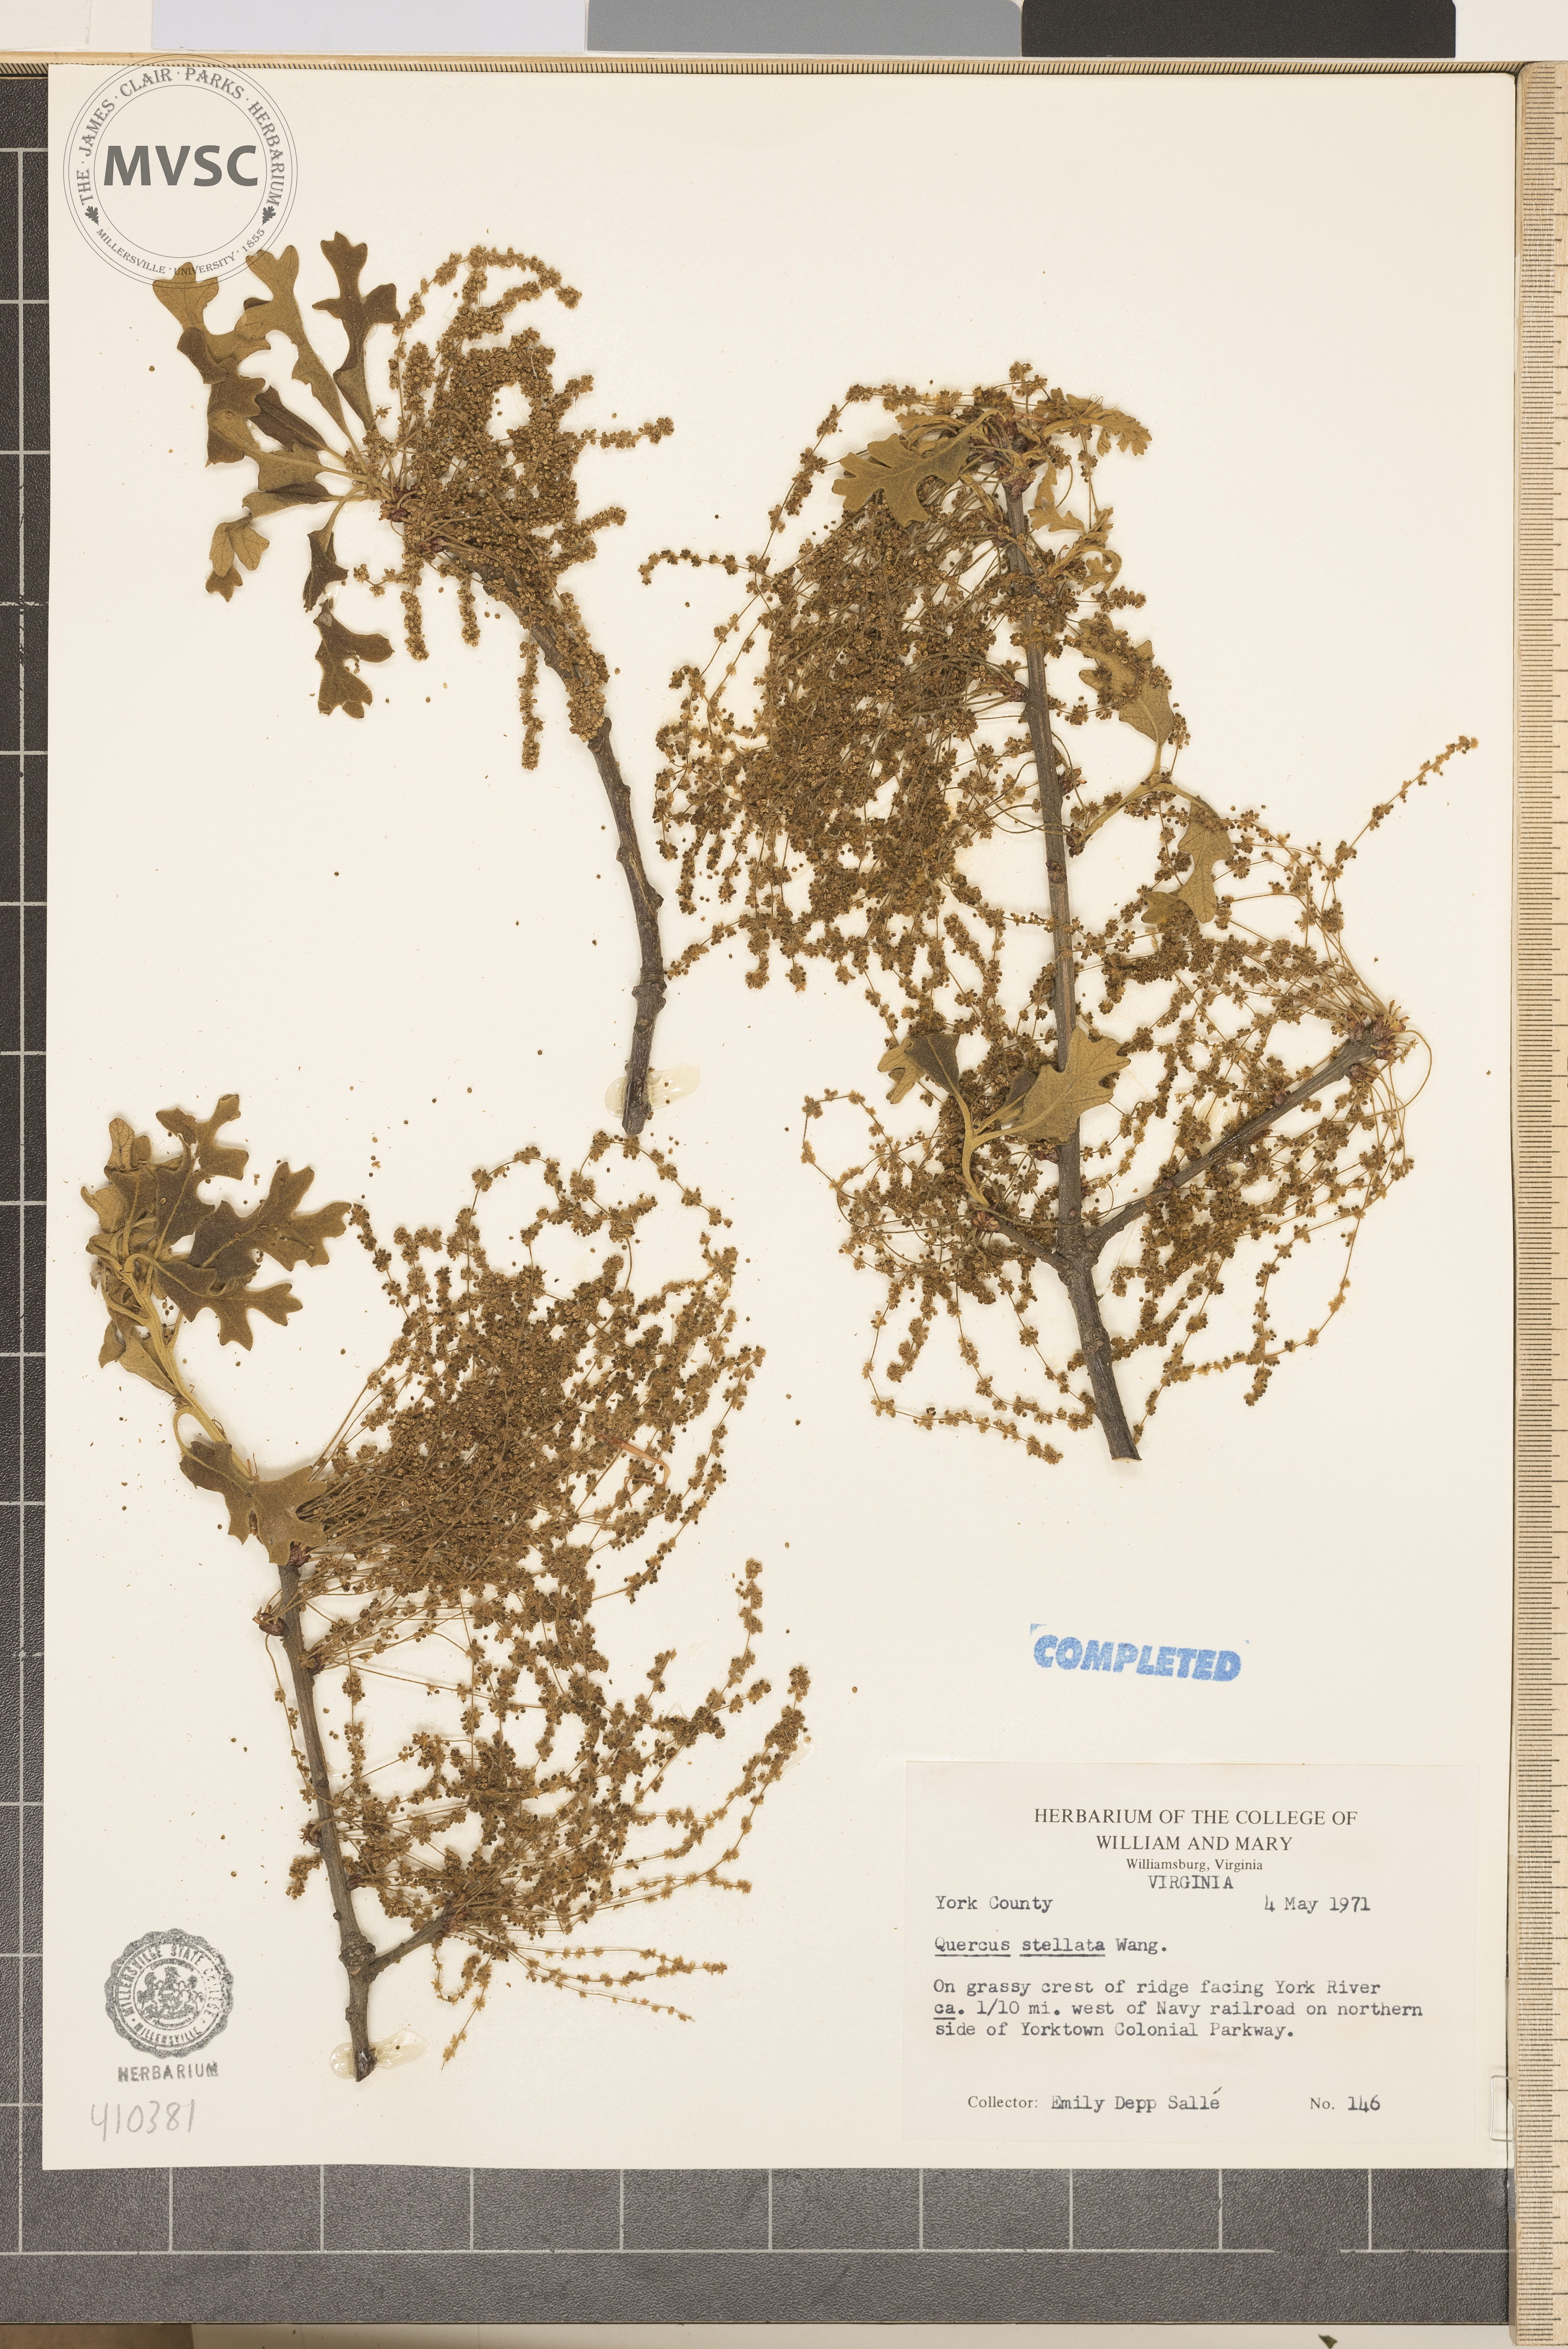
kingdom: Plantae
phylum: Tracheophyta
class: Magnoliopsida
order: Fagales
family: Fagaceae
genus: Quercus
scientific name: Quercus stellata
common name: Post oak
